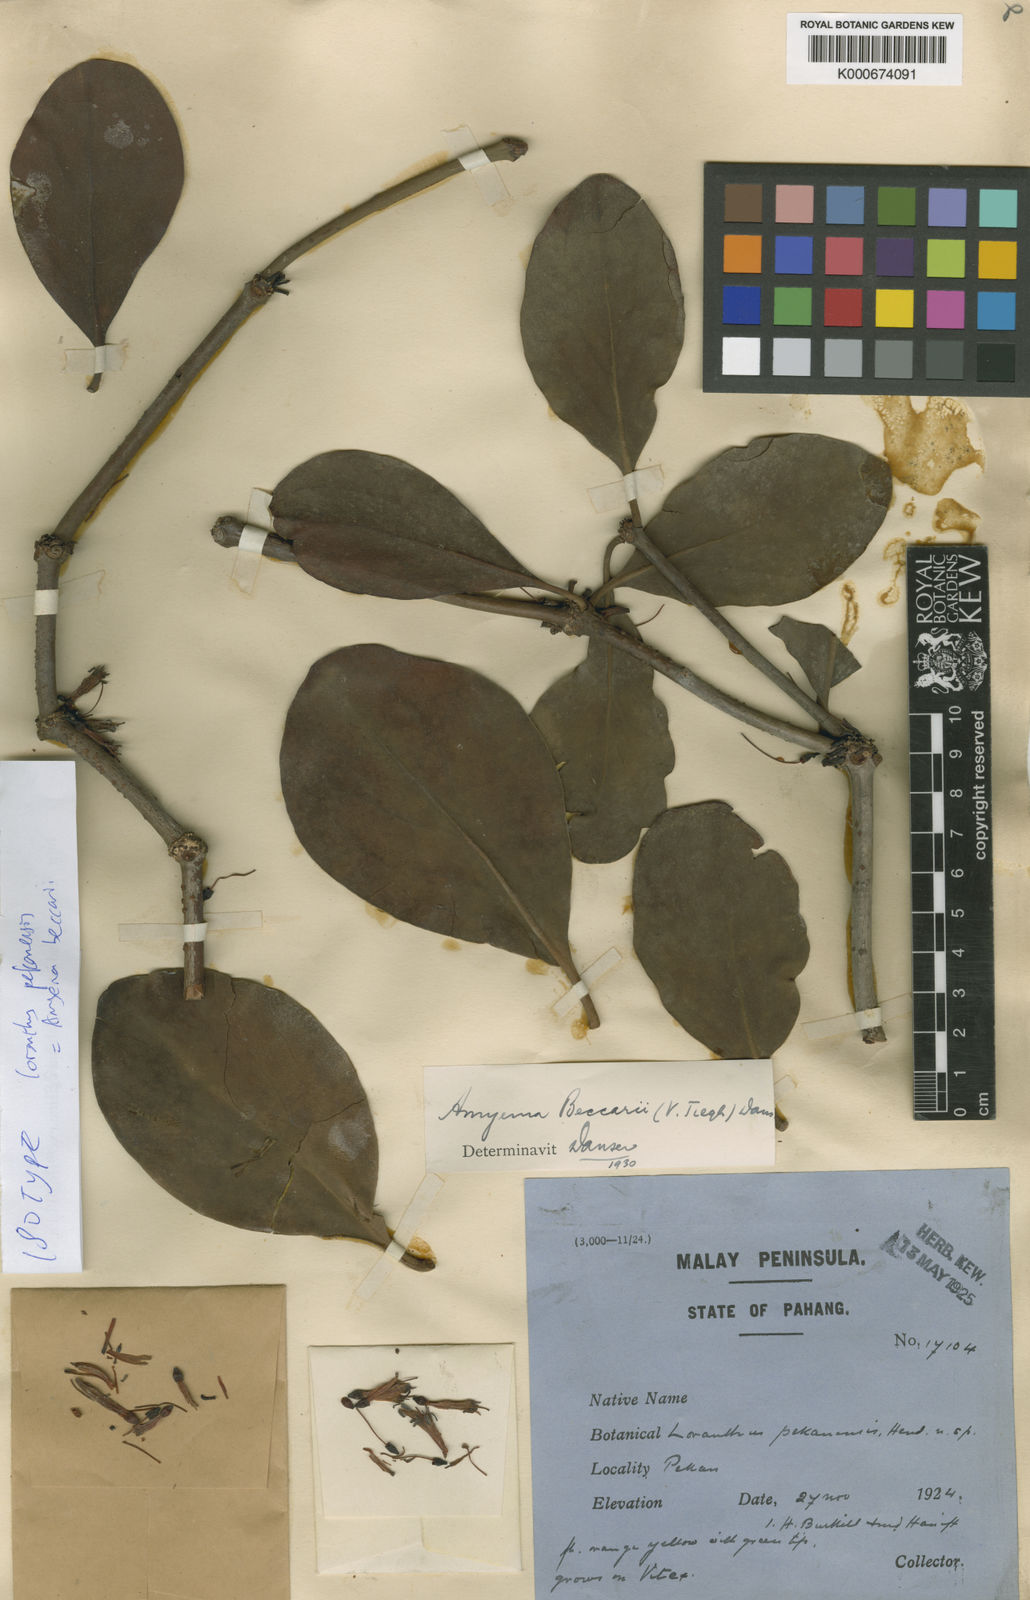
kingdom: Plantae
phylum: Tracheophyta
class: Magnoliopsida
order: Santalales
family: Loranthaceae
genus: Loranthus
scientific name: Loranthus pekanensis
